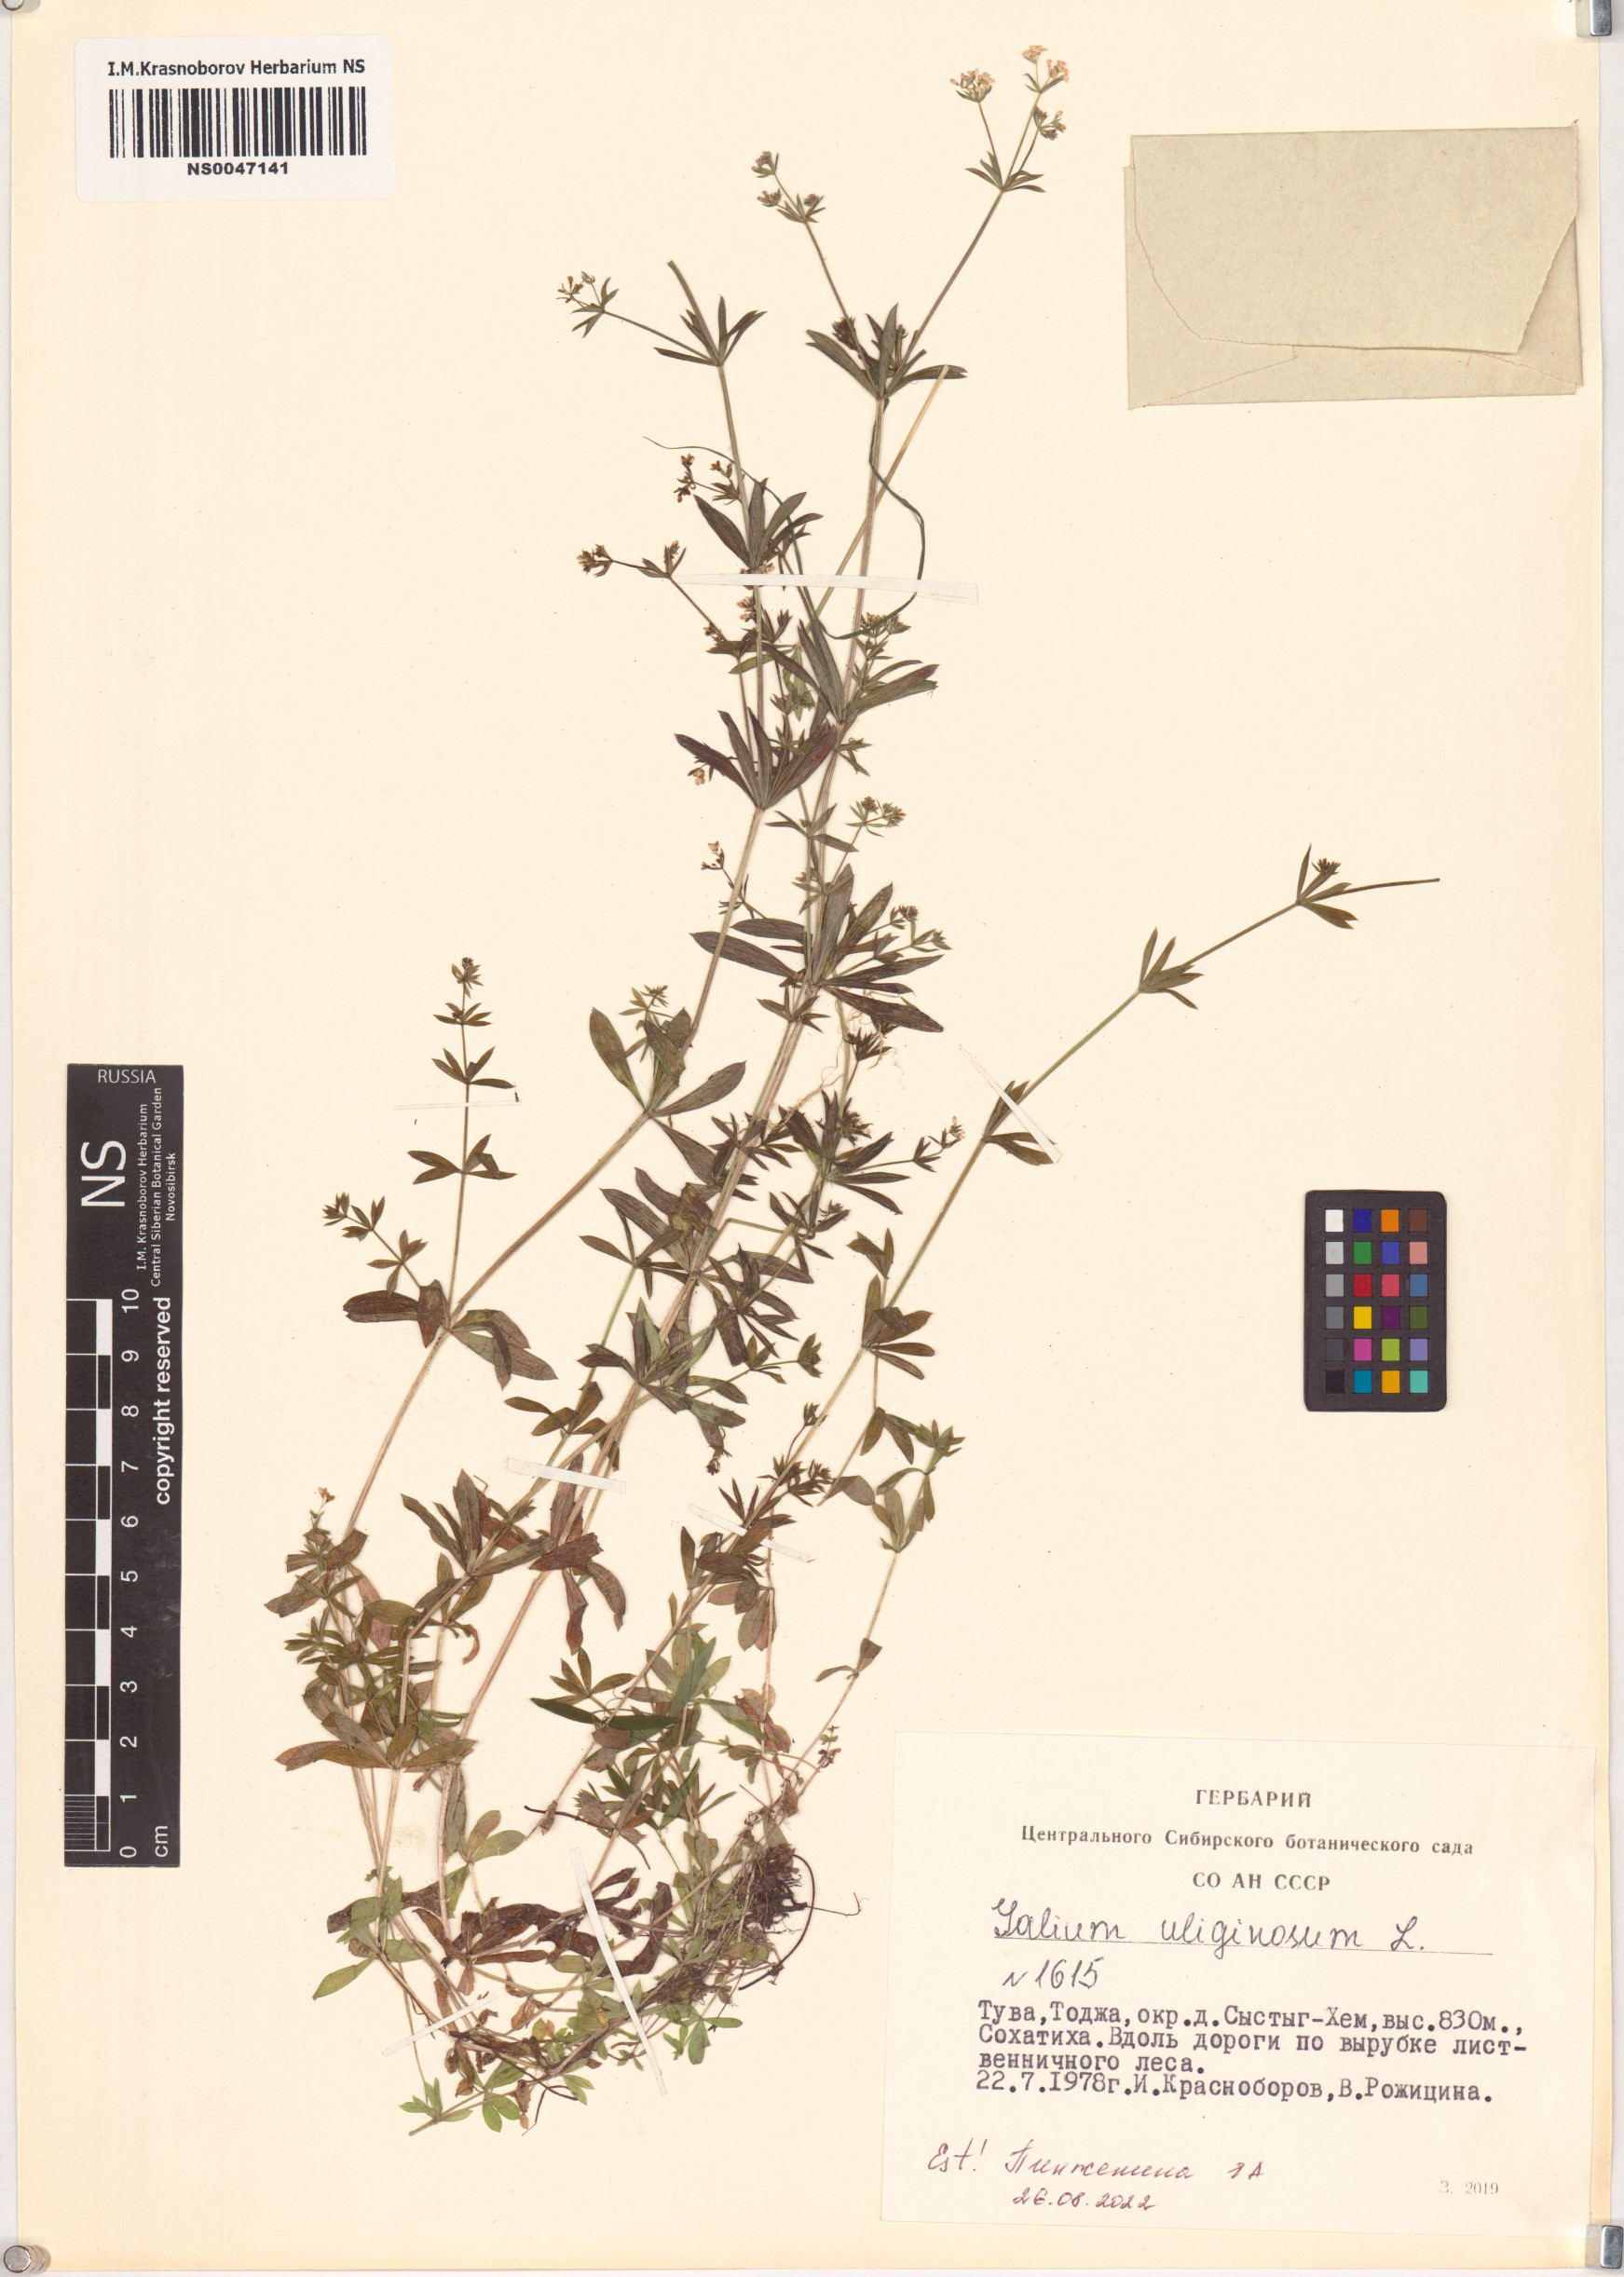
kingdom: Plantae
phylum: Tracheophyta
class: Magnoliopsida
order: Gentianales
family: Rubiaceae
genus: Galium
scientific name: Galium uliginosum
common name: Fen bedstraw
